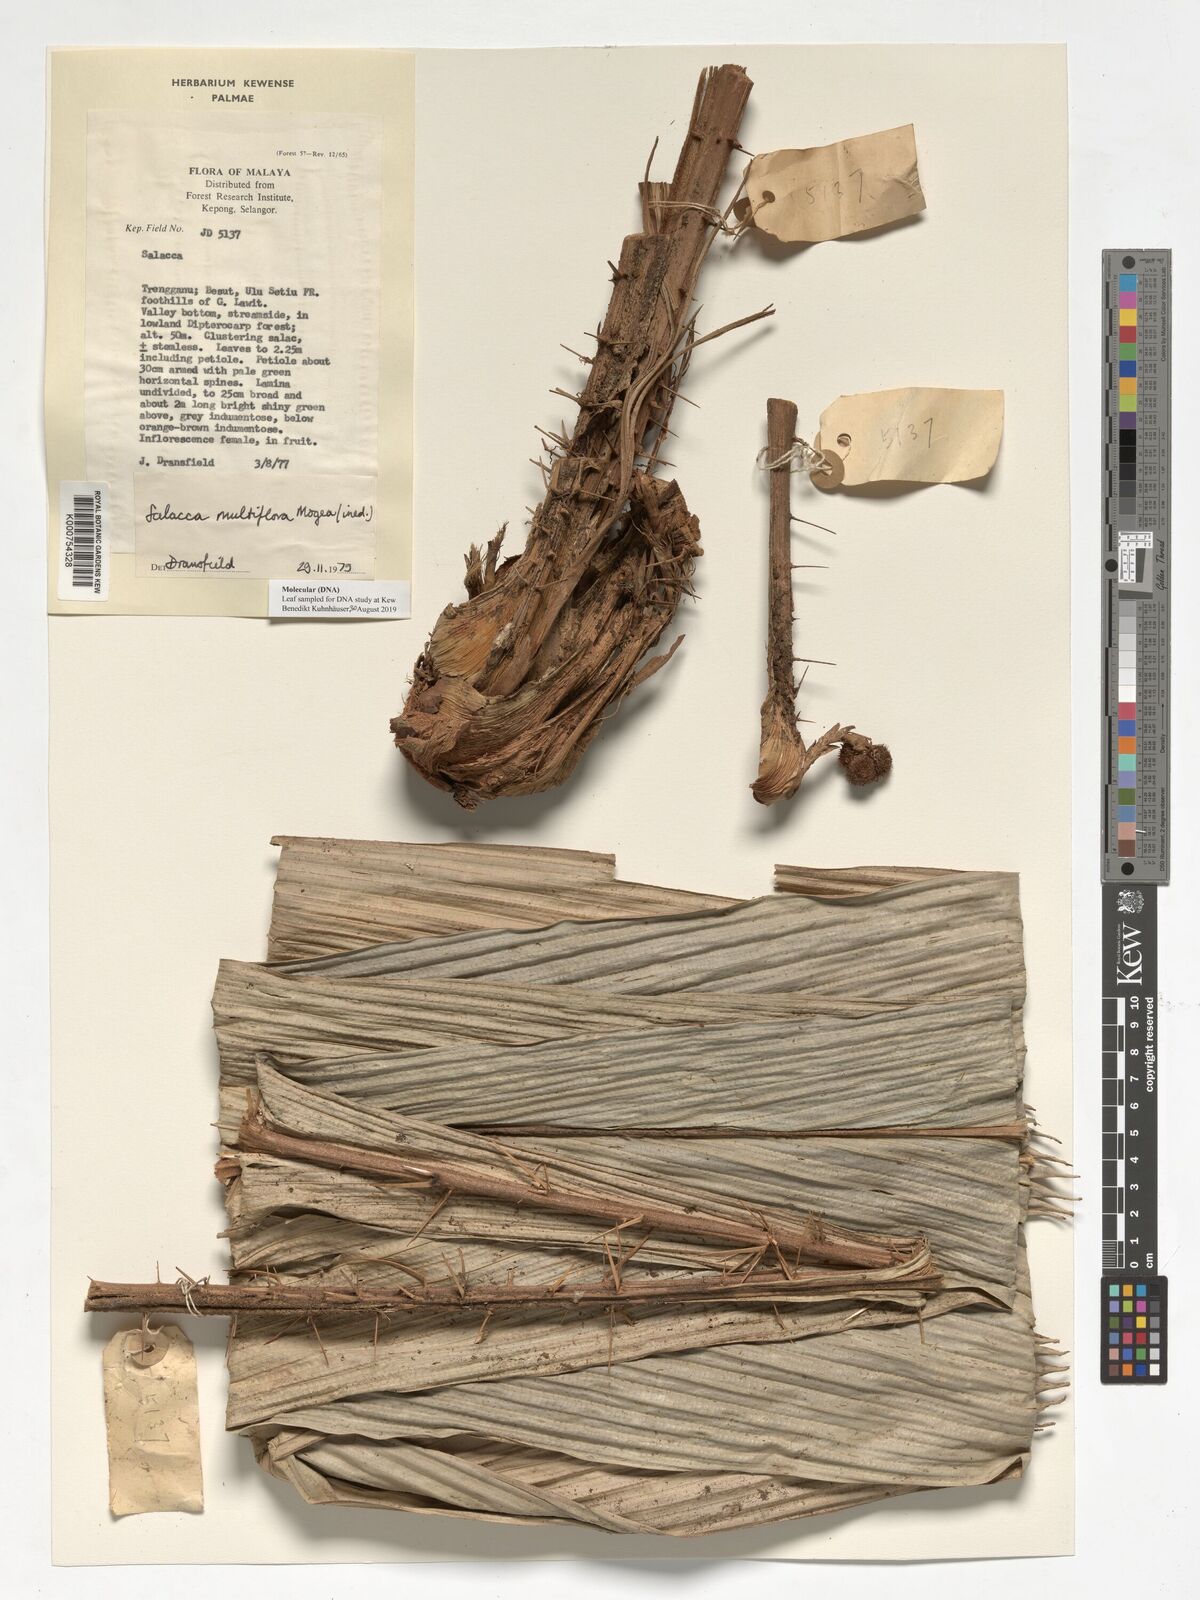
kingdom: Plantae
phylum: Tracheophyta
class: Liliopsida
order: Arecales
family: Arecaceae
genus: Salacca
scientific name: Salacca multiflora
